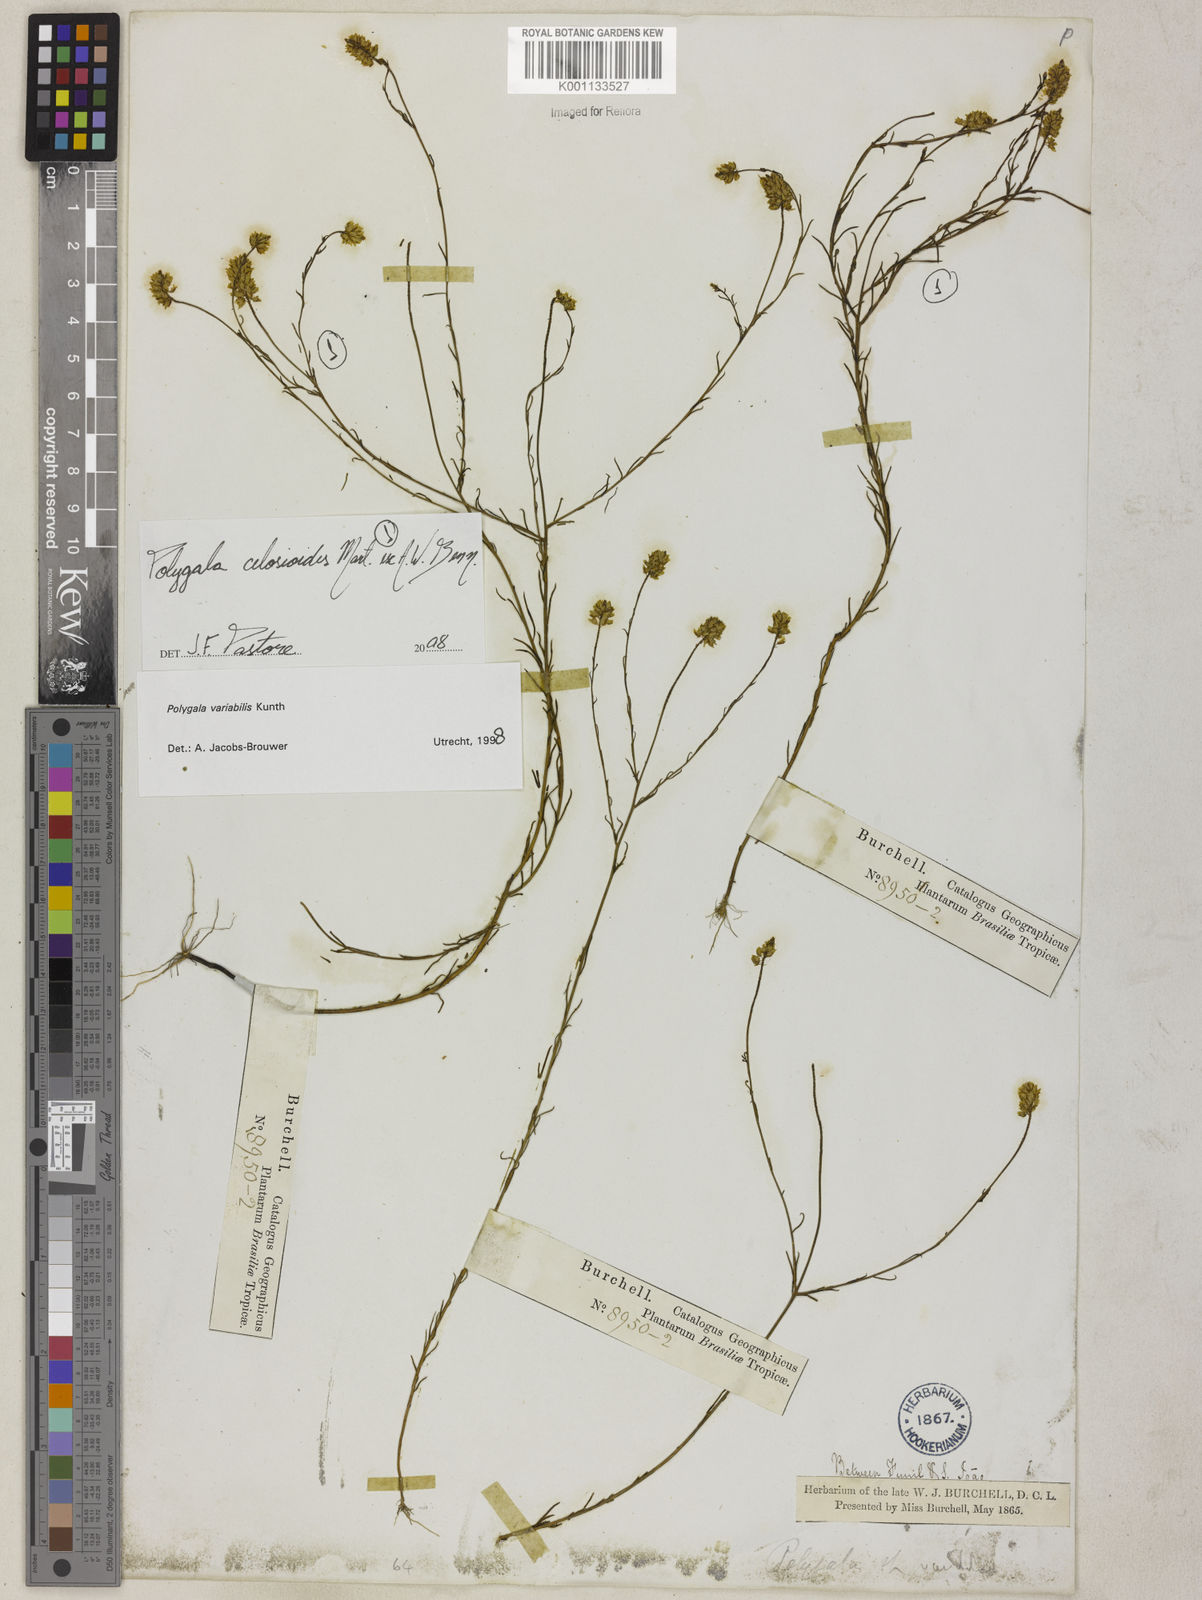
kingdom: Plantae
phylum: Tracheophyta
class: Magnoliopsida
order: Fabales
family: Polygalaceae
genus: Polygala
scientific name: Polygala celosioides
